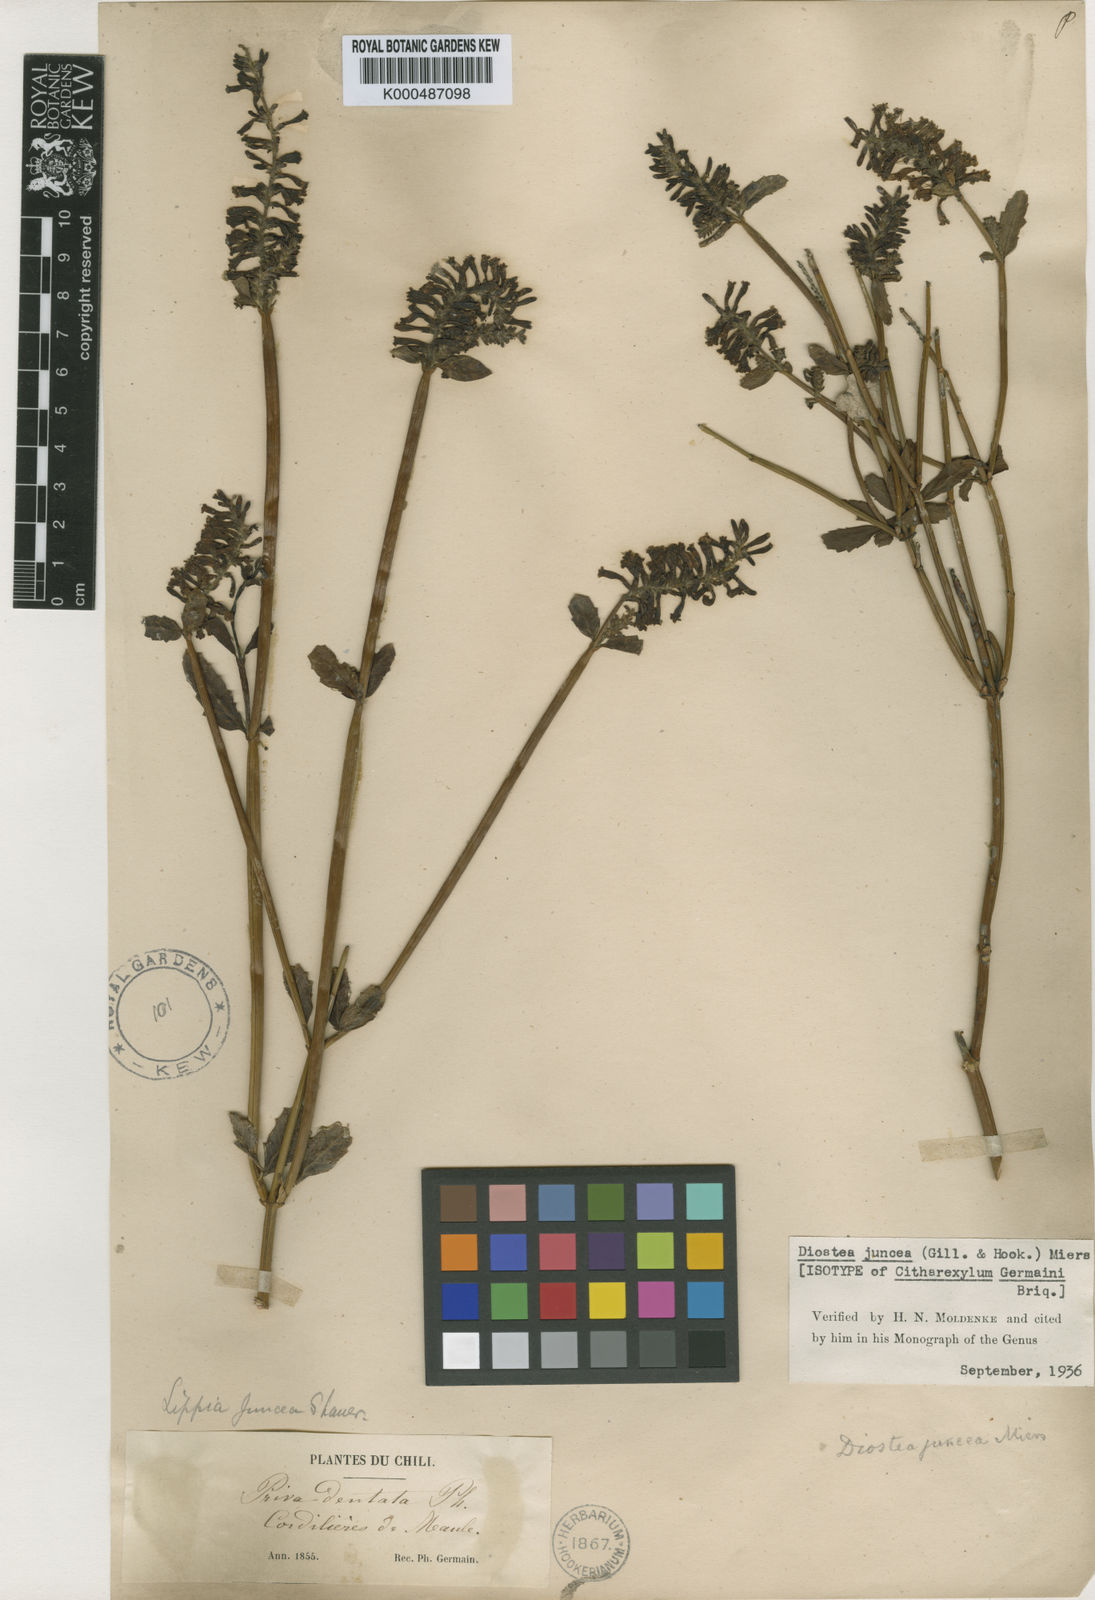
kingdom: Plantae
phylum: Tracheophyta
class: Magnoliopsida
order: Lamiales
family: Verbenaceae
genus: Diostea
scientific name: Diostea juncea
